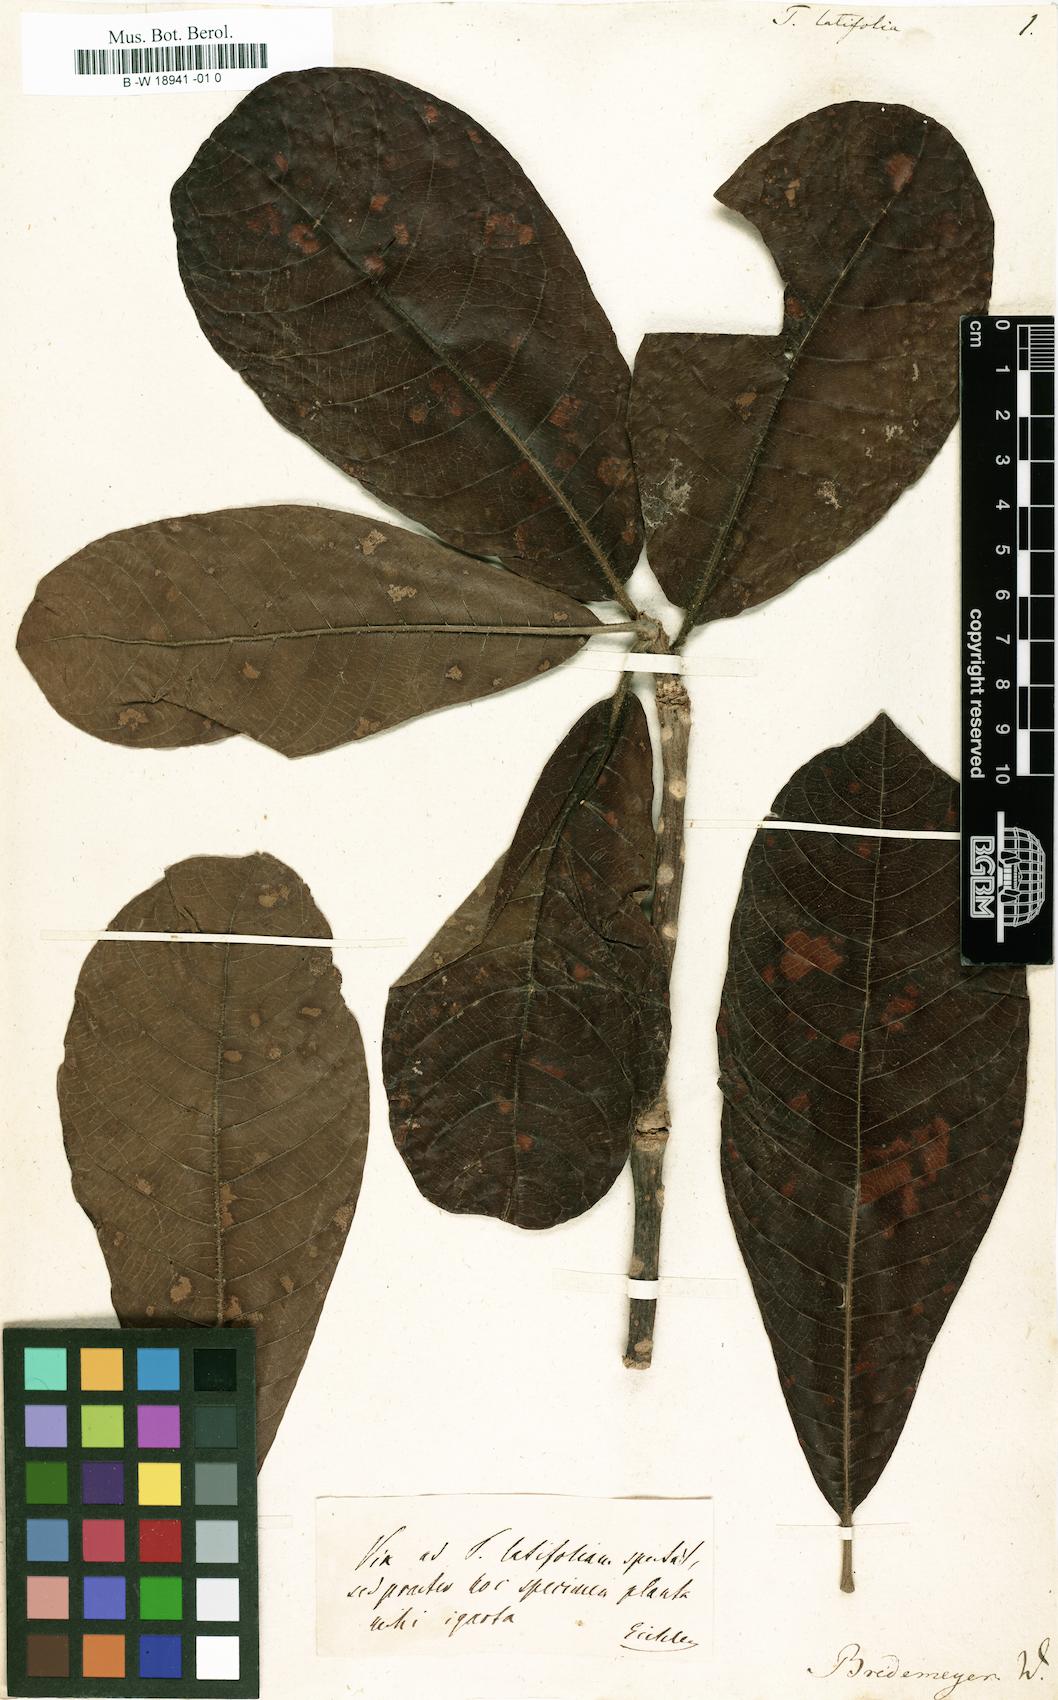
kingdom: Plantae
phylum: Tracheophyta
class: Magnoliopsida
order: Myrtales
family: Combretaceae
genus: Terminalia
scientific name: Terminalia latifolia
